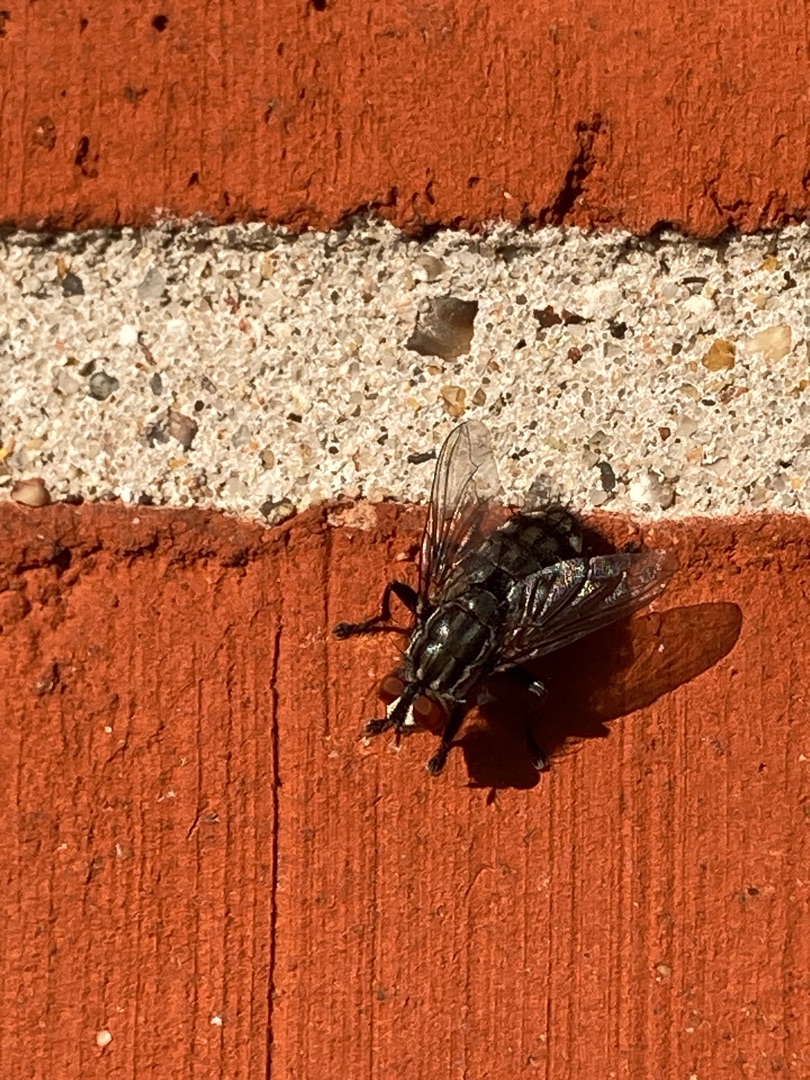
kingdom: Animalia
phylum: Arthropoda
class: Insecta
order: Diptera
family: Sarcophagidae
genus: Sarcophaga
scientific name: Sarcophaga
